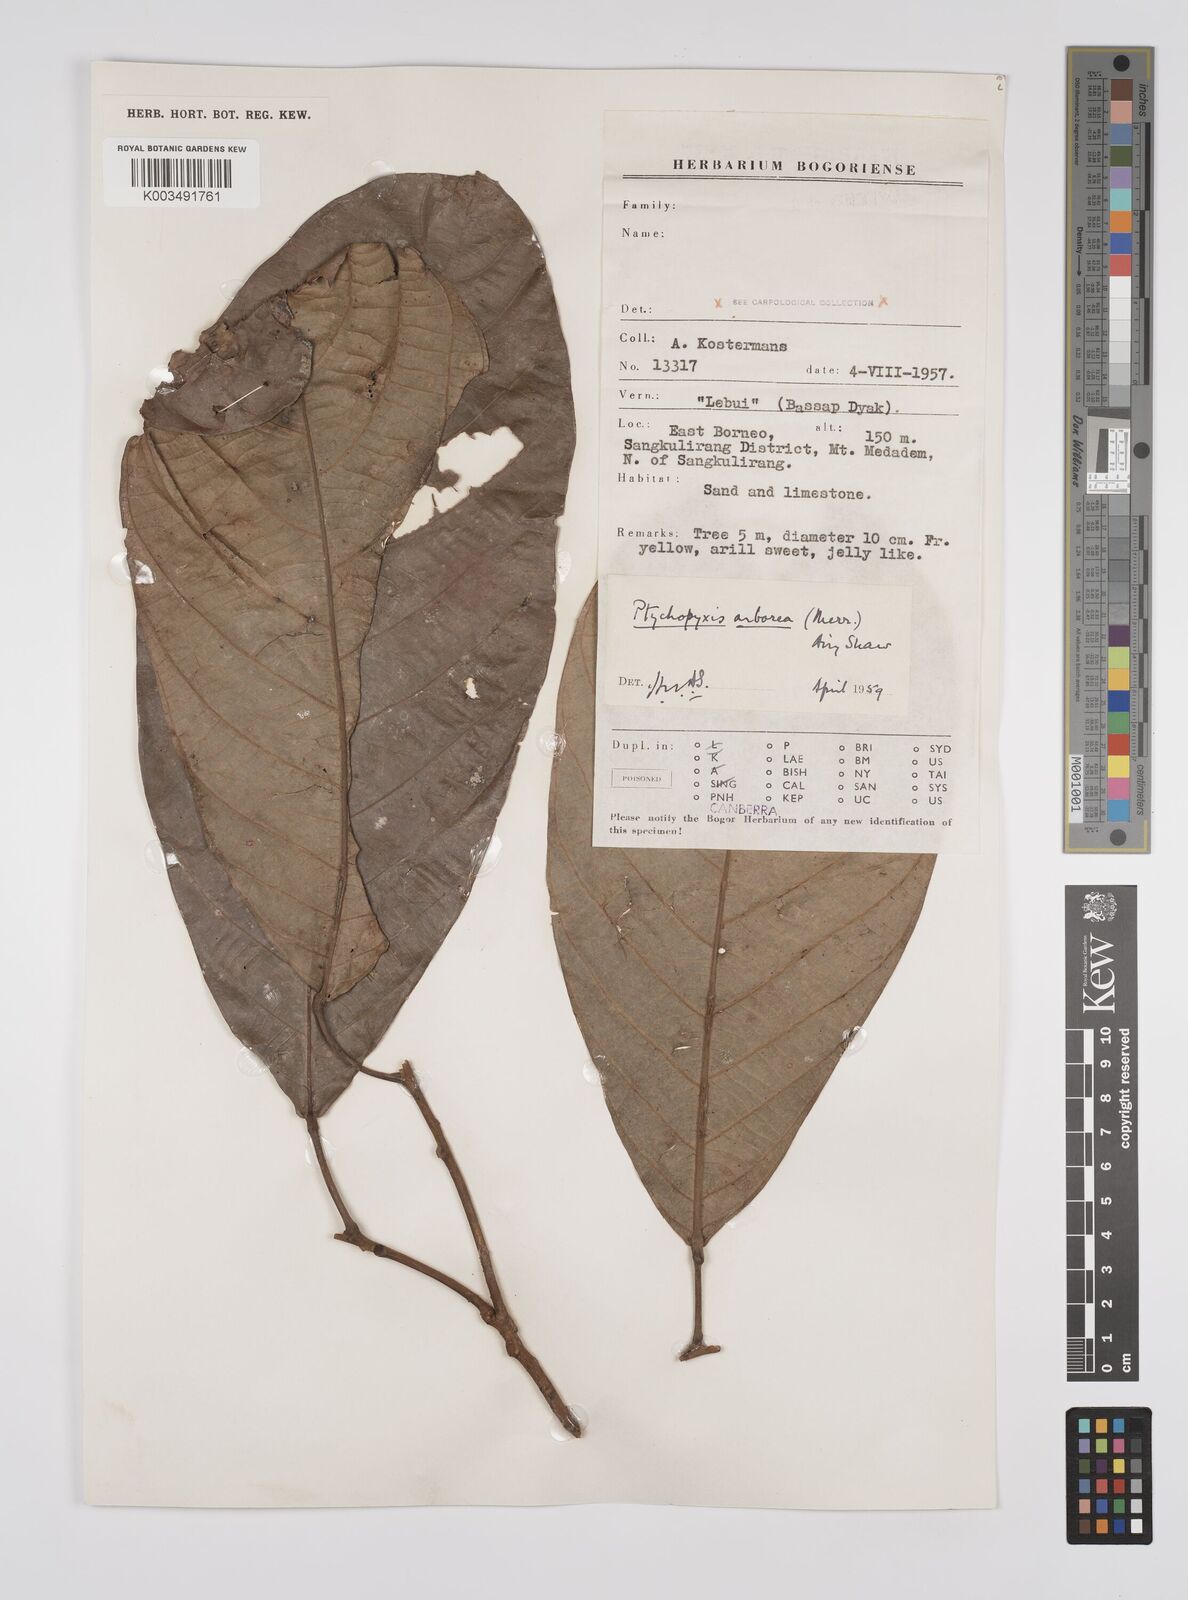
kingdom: Plantae
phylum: Tracheophyta
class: Magnoliopsida
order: Malpighiales
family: Euphorbiaceae
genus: Ptychopyxis
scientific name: Ptychopyxis arborea
